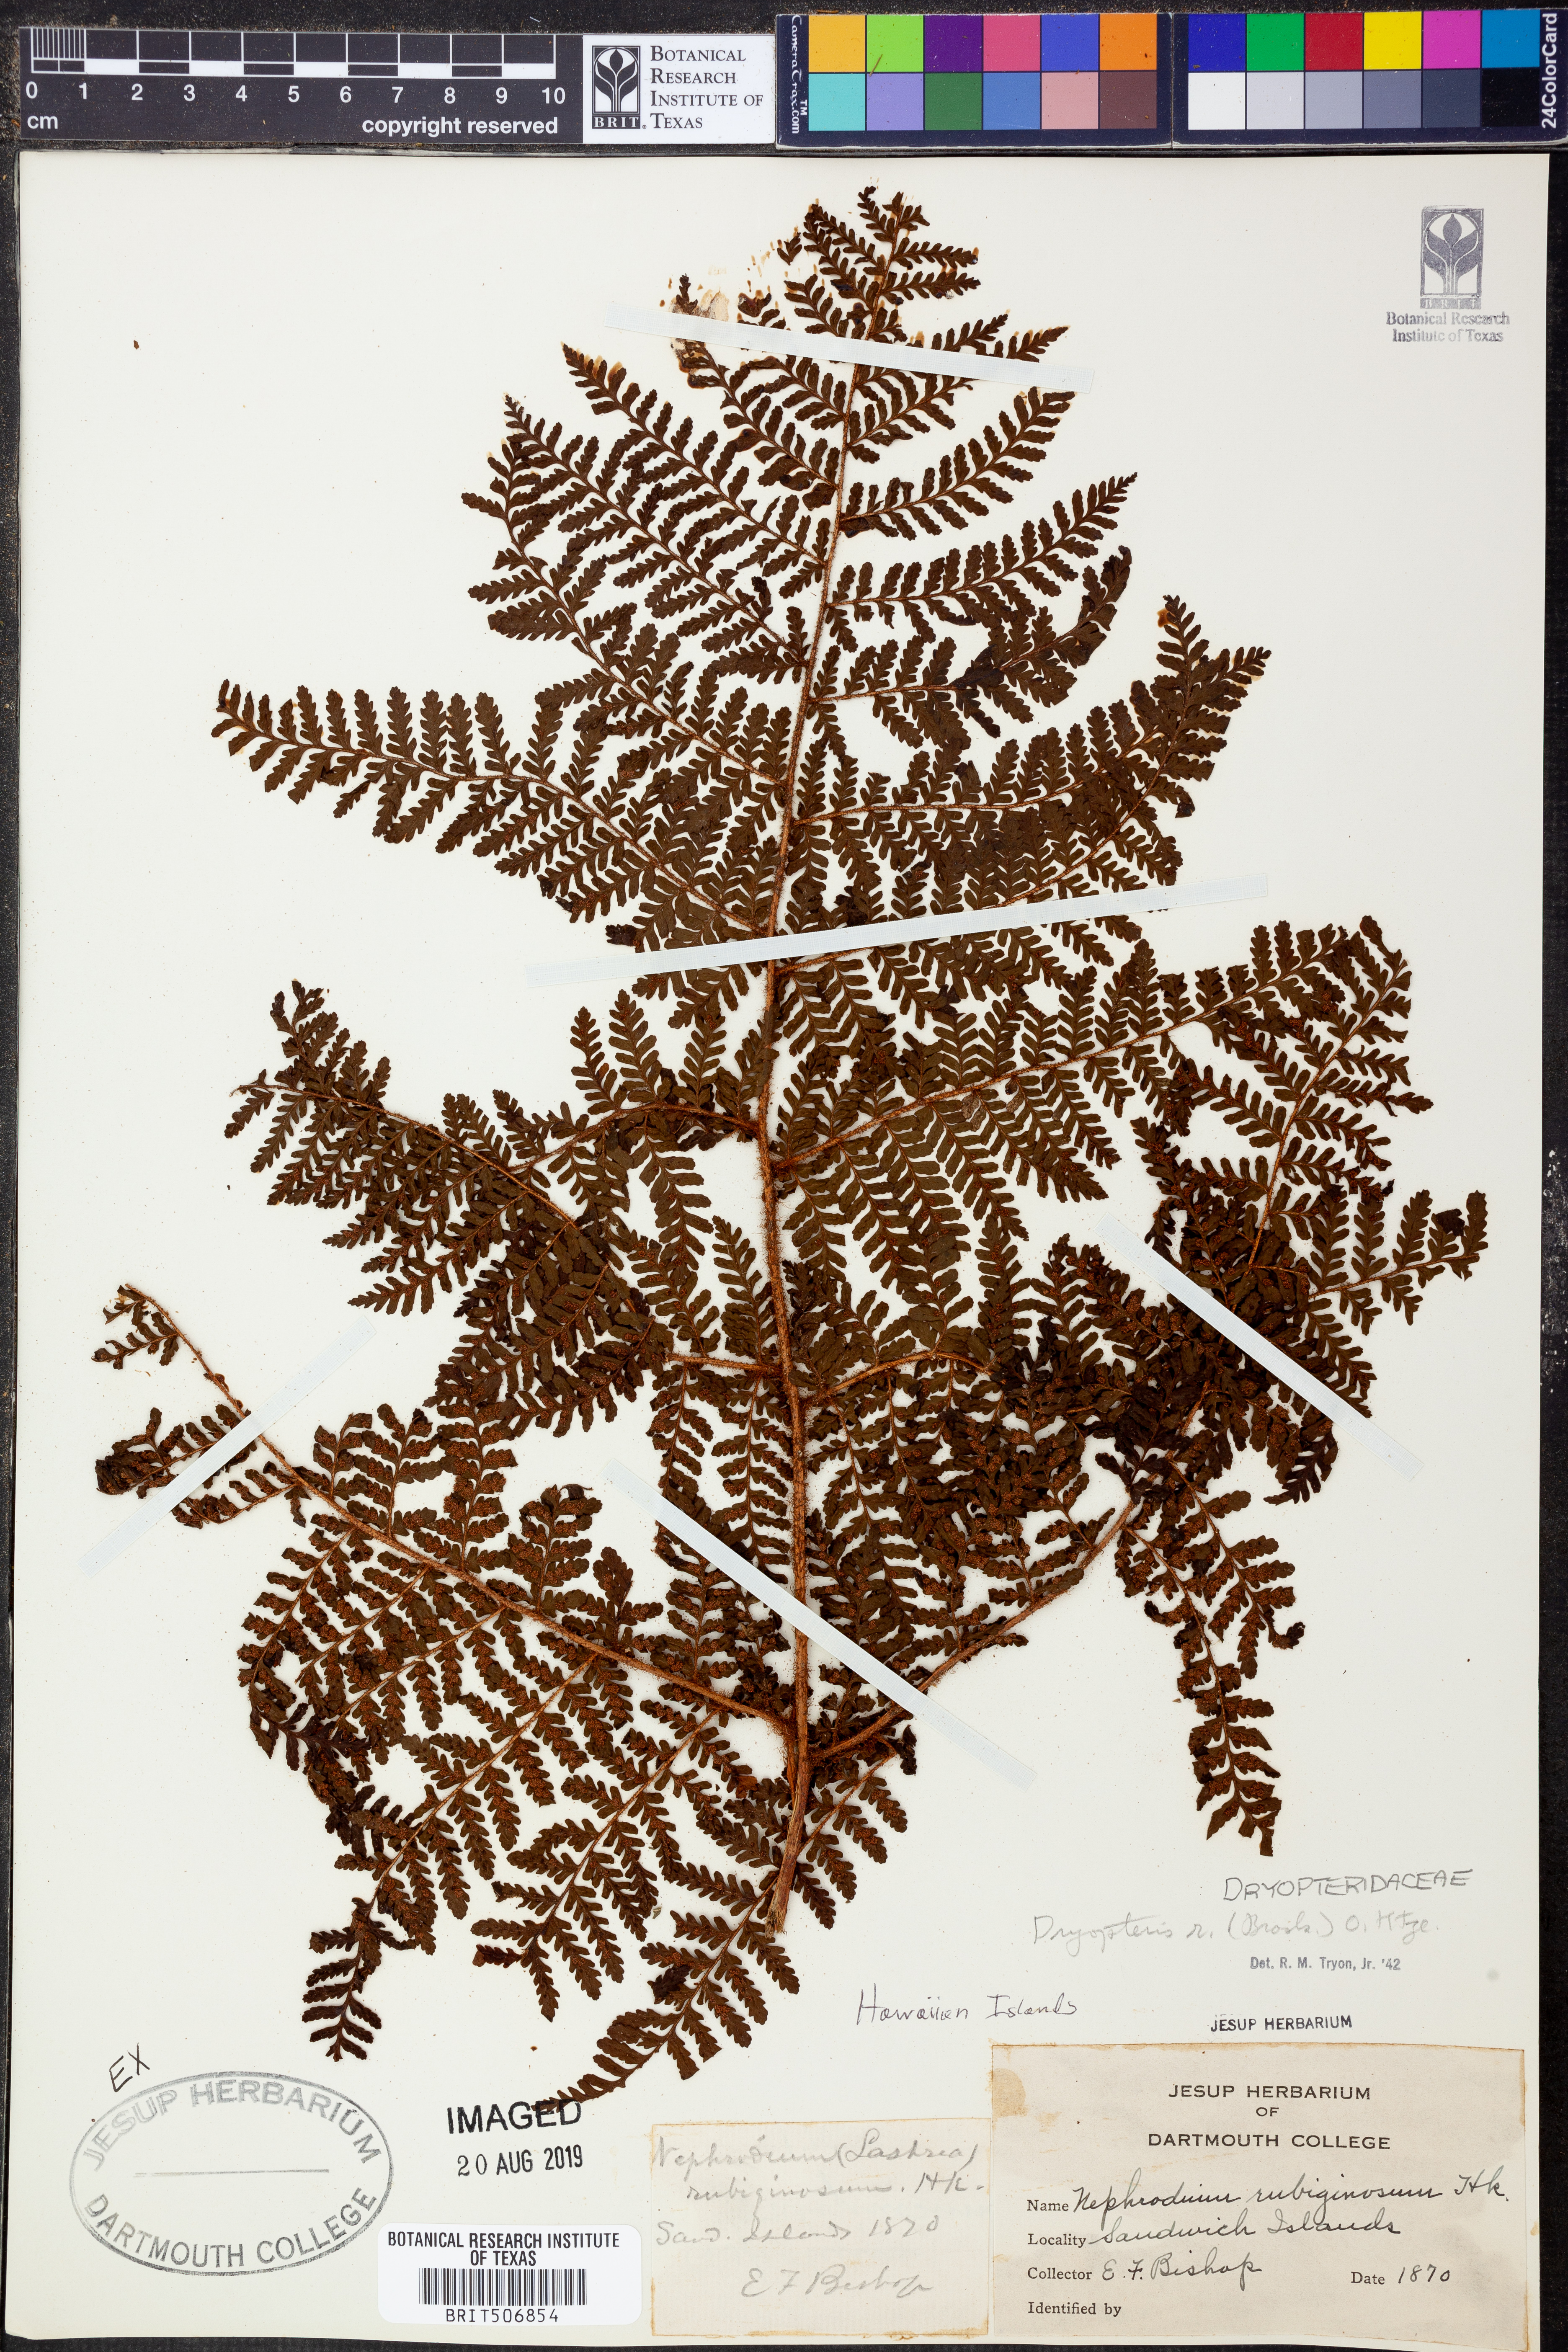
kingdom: Plantae
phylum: Tracheophyta
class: Polypodiopsida
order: Polypodiales
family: Dryopteridaceae
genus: Dryopteris
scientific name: Dryopteris rubiginosa
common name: Island lacefern
